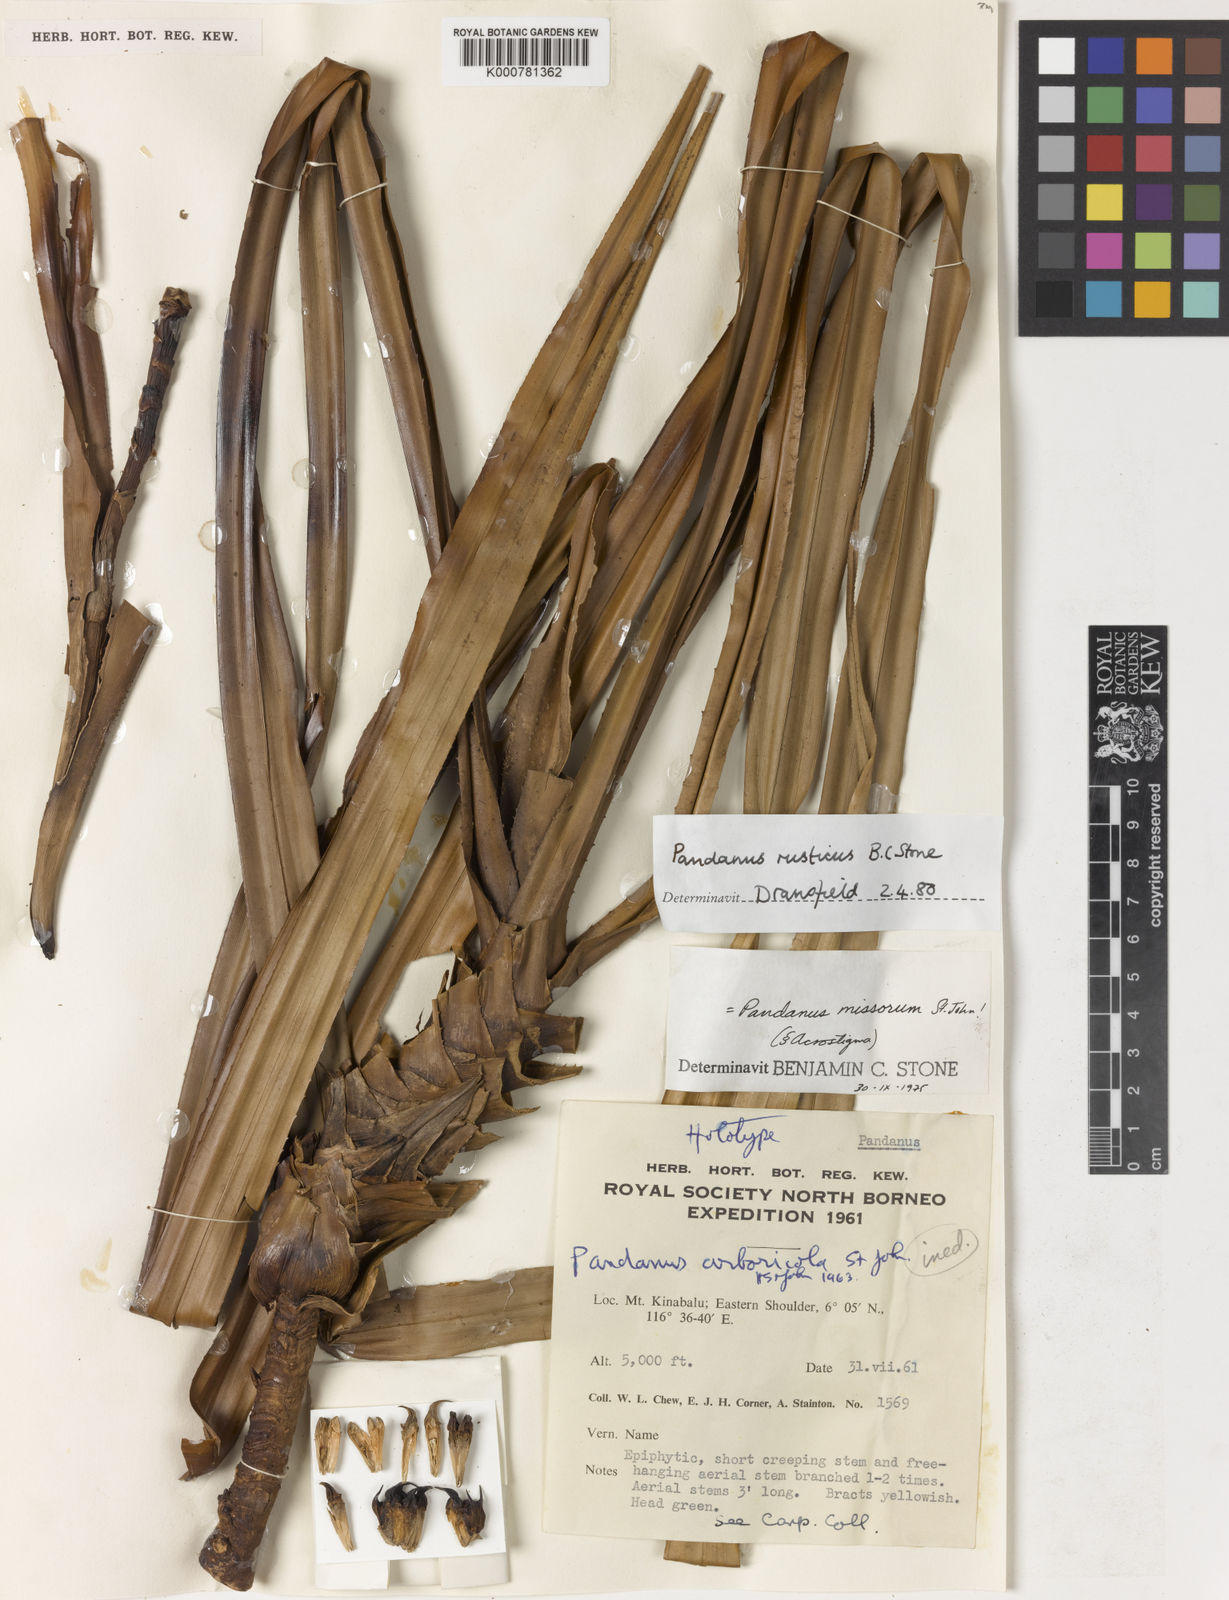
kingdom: Plantae
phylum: Tracheophyta
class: Liliopsida
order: Pandanales
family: Pandanaceae
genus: Benstonea
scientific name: Benstonea rustica
